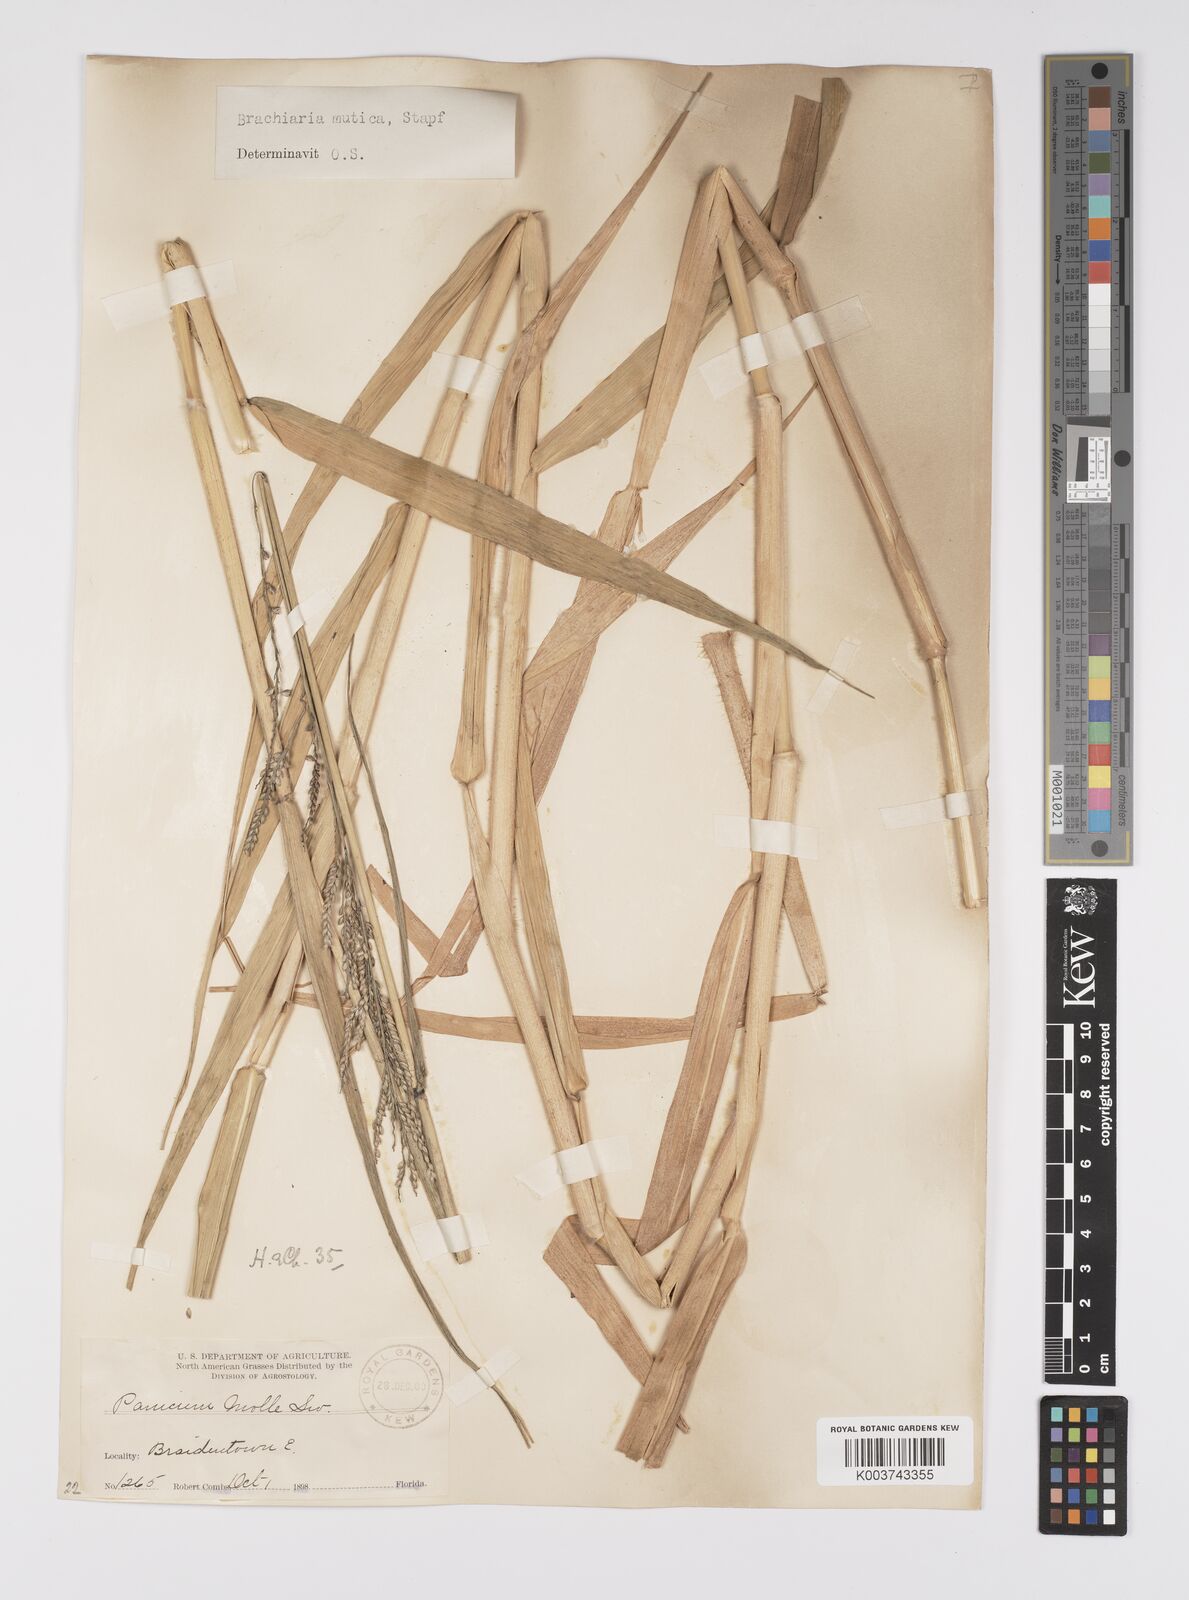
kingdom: Plantae
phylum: Tracheophyta
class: Liliopsida
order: Poales
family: Poaceae
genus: Urochloa
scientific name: Urochloa mutica
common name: Para grass
